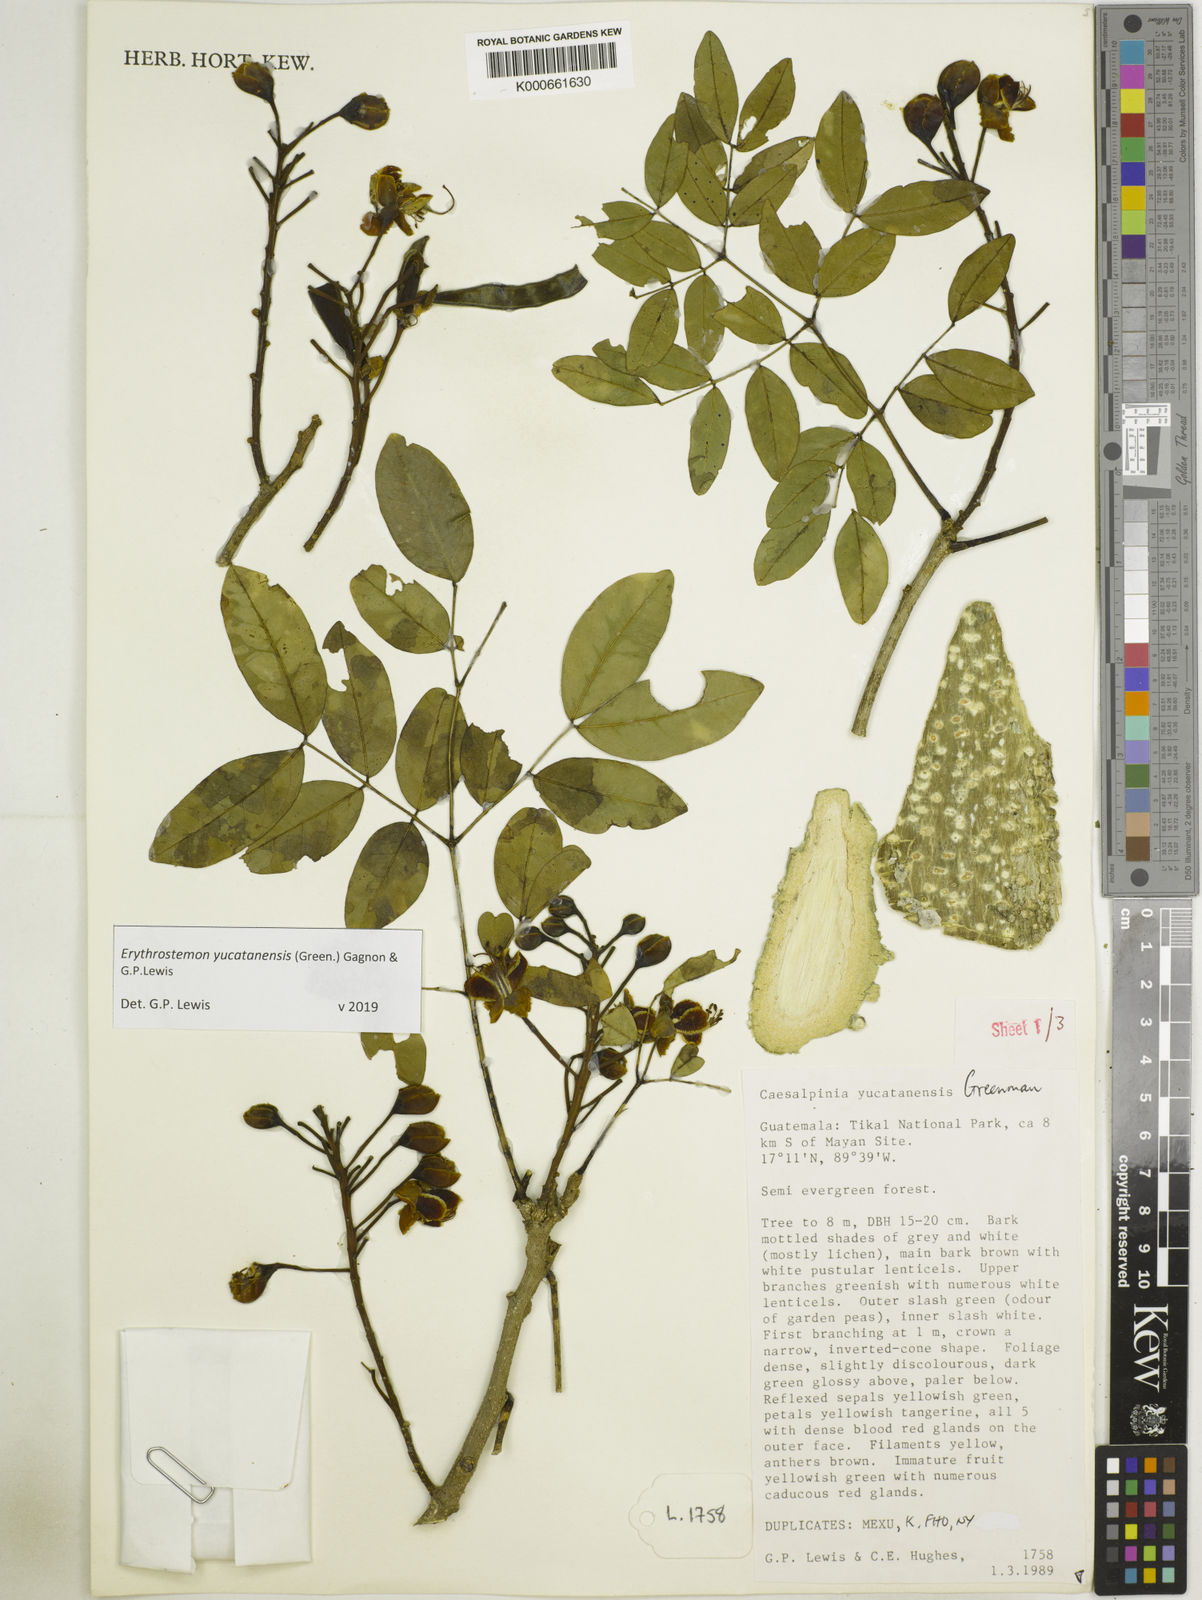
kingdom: Plantae
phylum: Tracheophyta
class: Magnoliopsida
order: Fabales
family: Fabaceae
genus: Caesalpinia
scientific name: Caesalpinia
